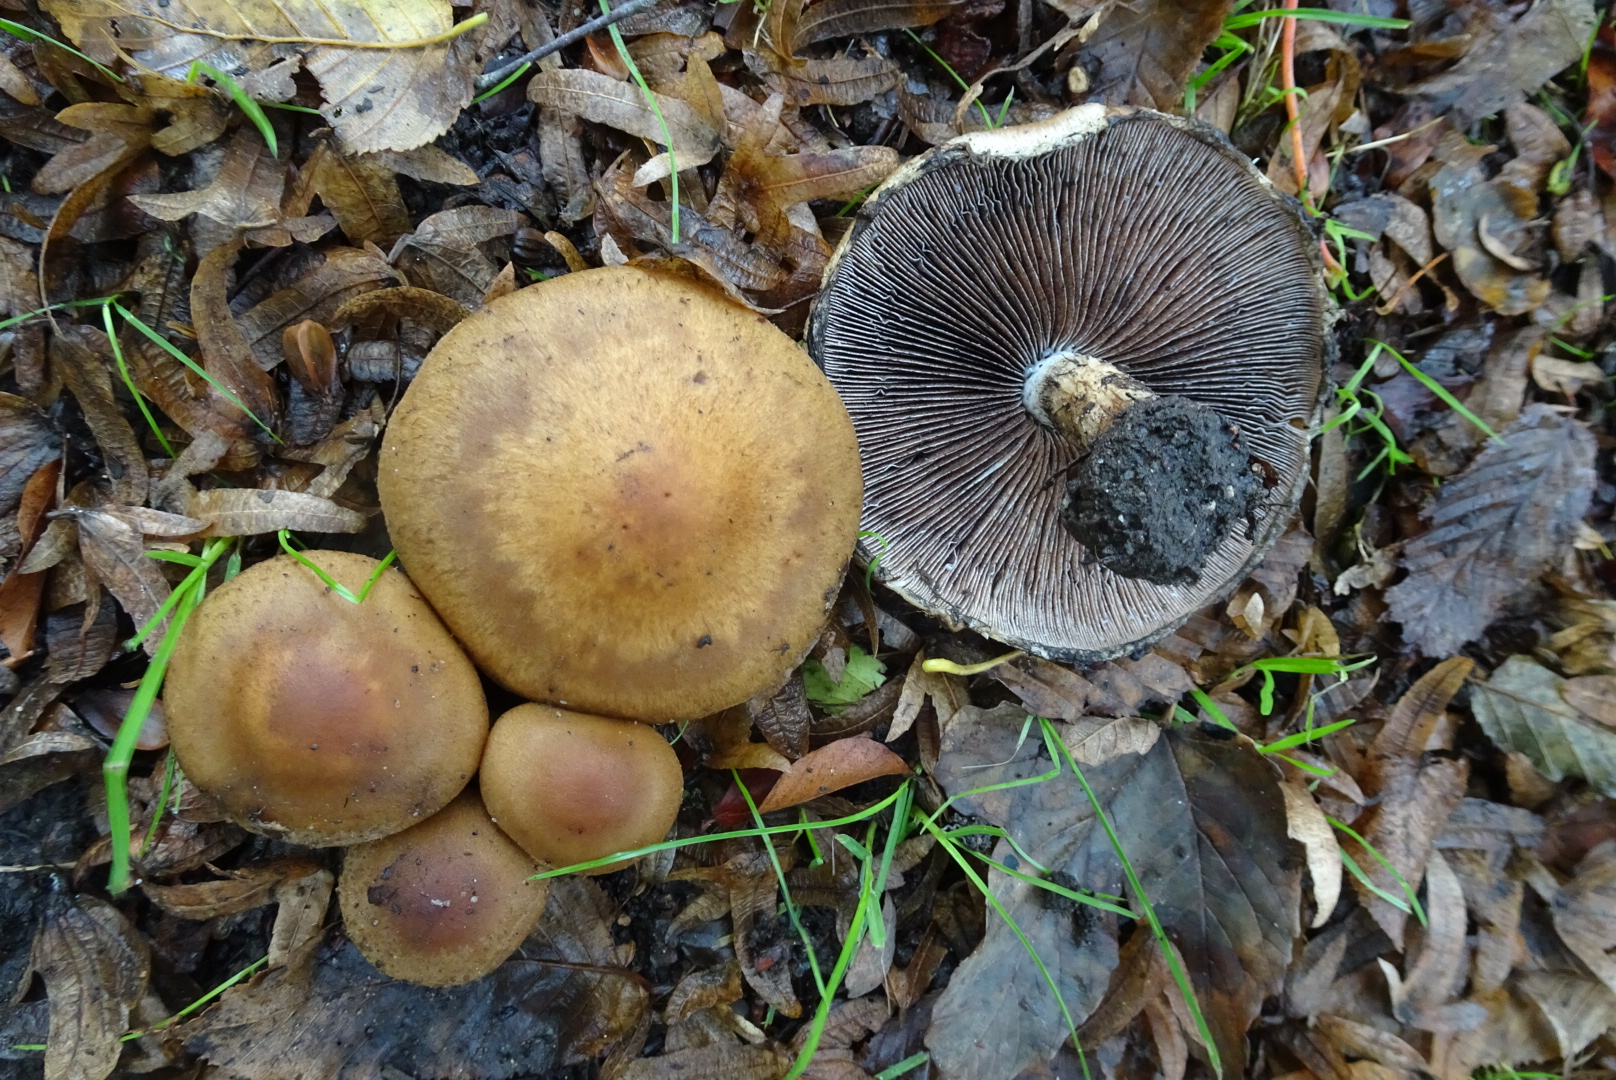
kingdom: Fungi
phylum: Basidiomycota
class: Agaricomycetes
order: Agaricales
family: Psathyrellaceae
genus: Lacrymaria
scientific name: Lacrymaria lacrymabunda
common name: grædende mørkhat
